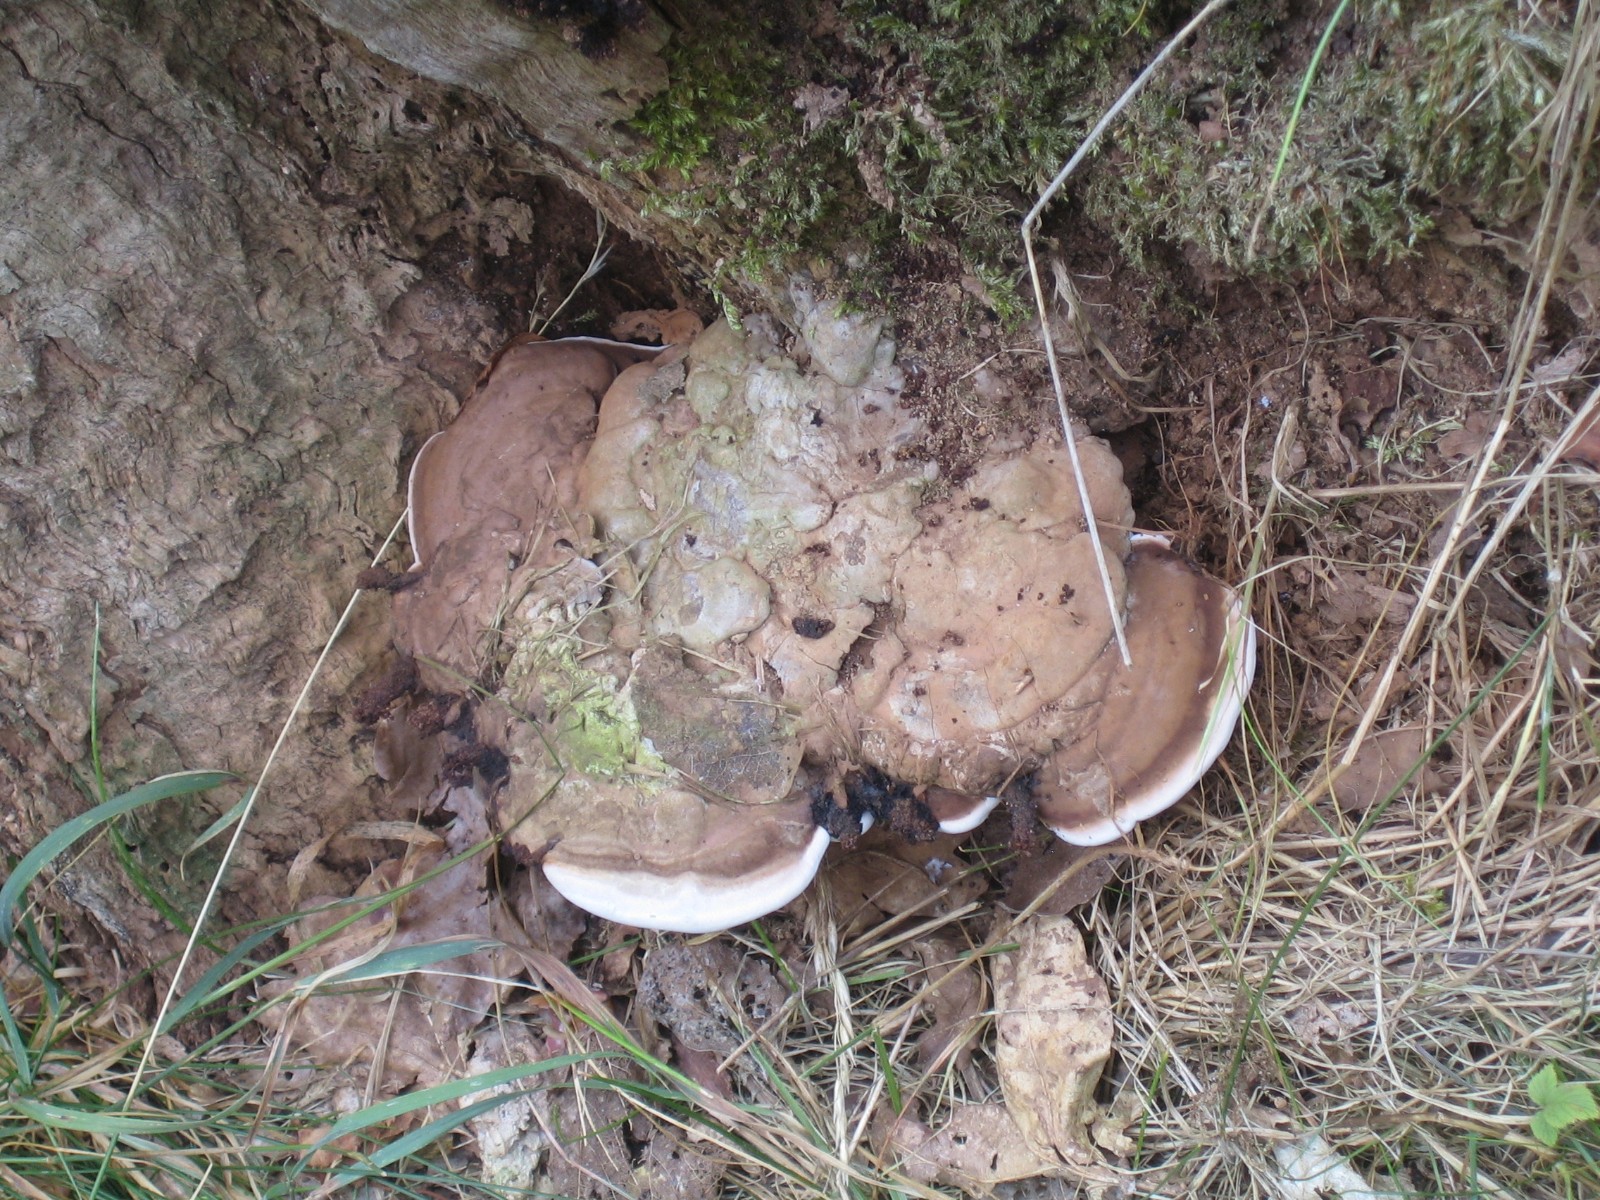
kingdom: Fungi
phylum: Basidiomycota
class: Agaricomycetes
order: Polyporales
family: Polyporaceae
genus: Ganoderma
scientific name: Ganoderma applanatum
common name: flad lakporesvamp
